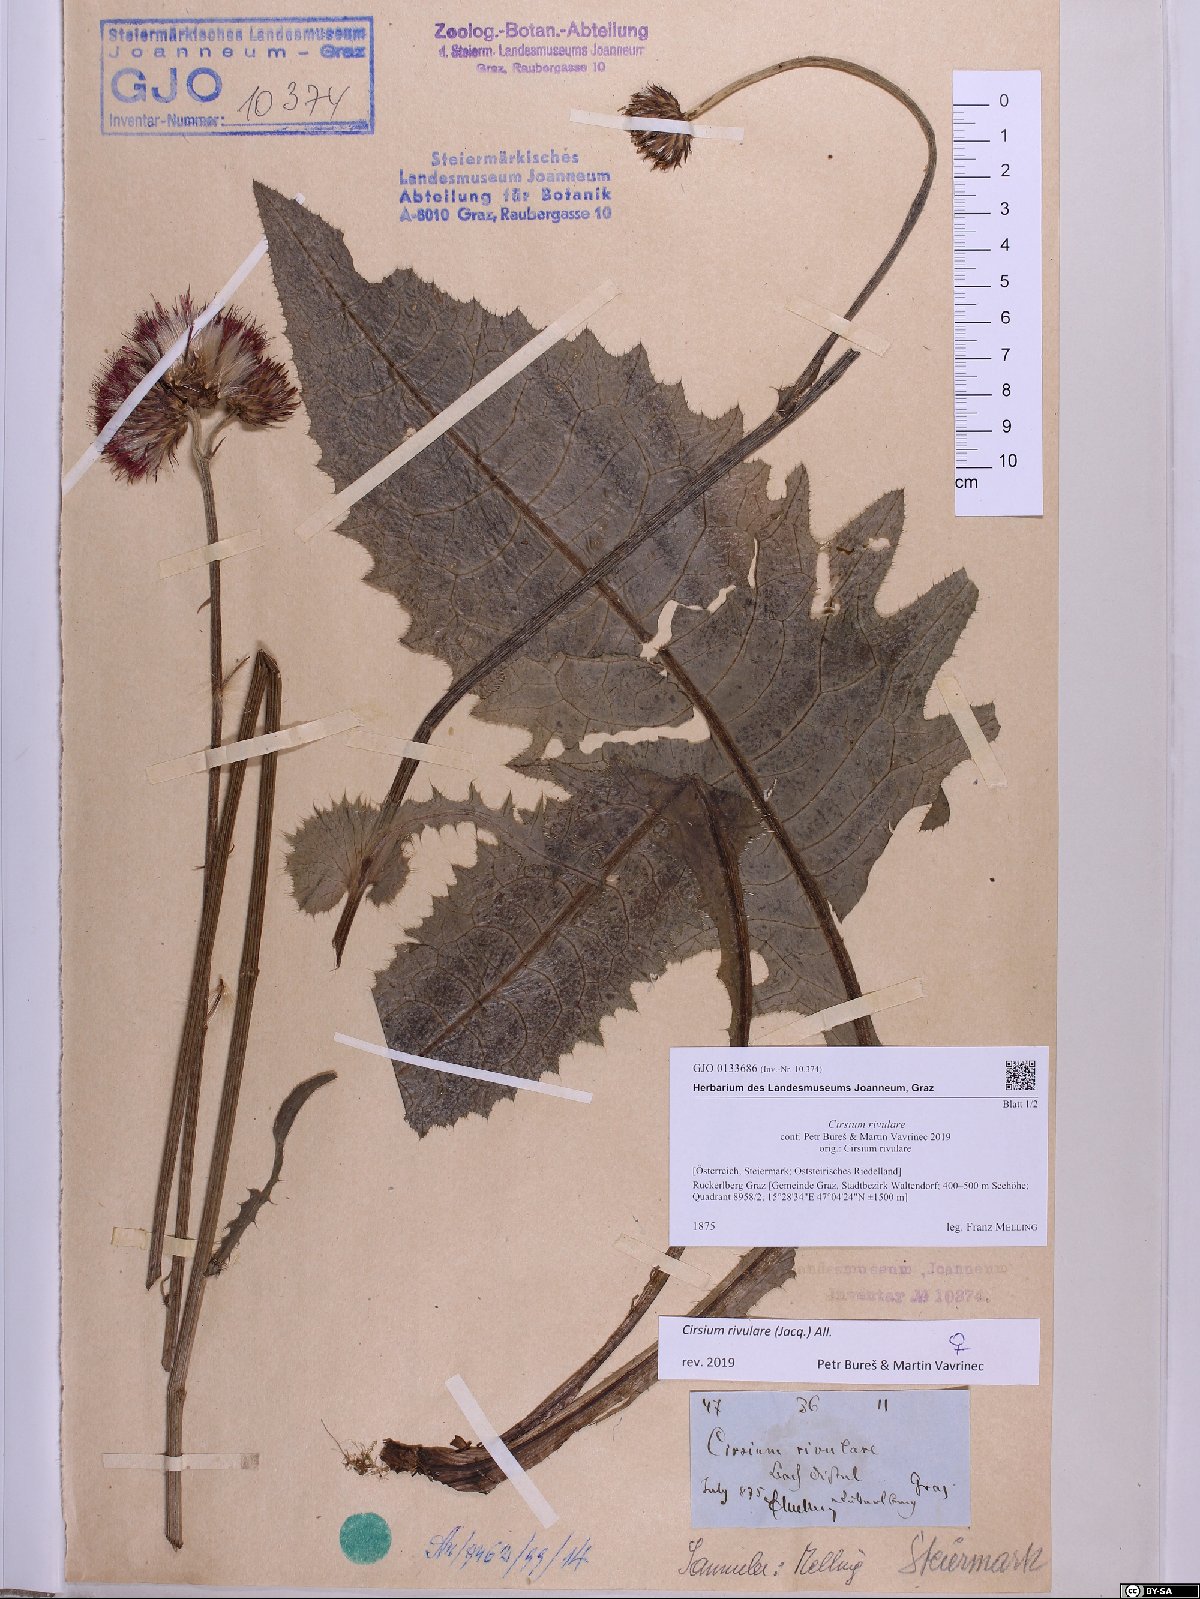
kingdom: Plantae
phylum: Tracheophyta
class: Magnoliopsida
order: Asterales
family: Asteraceae
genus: Cirsium
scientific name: Cirsium rivulare
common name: Brook thistle
